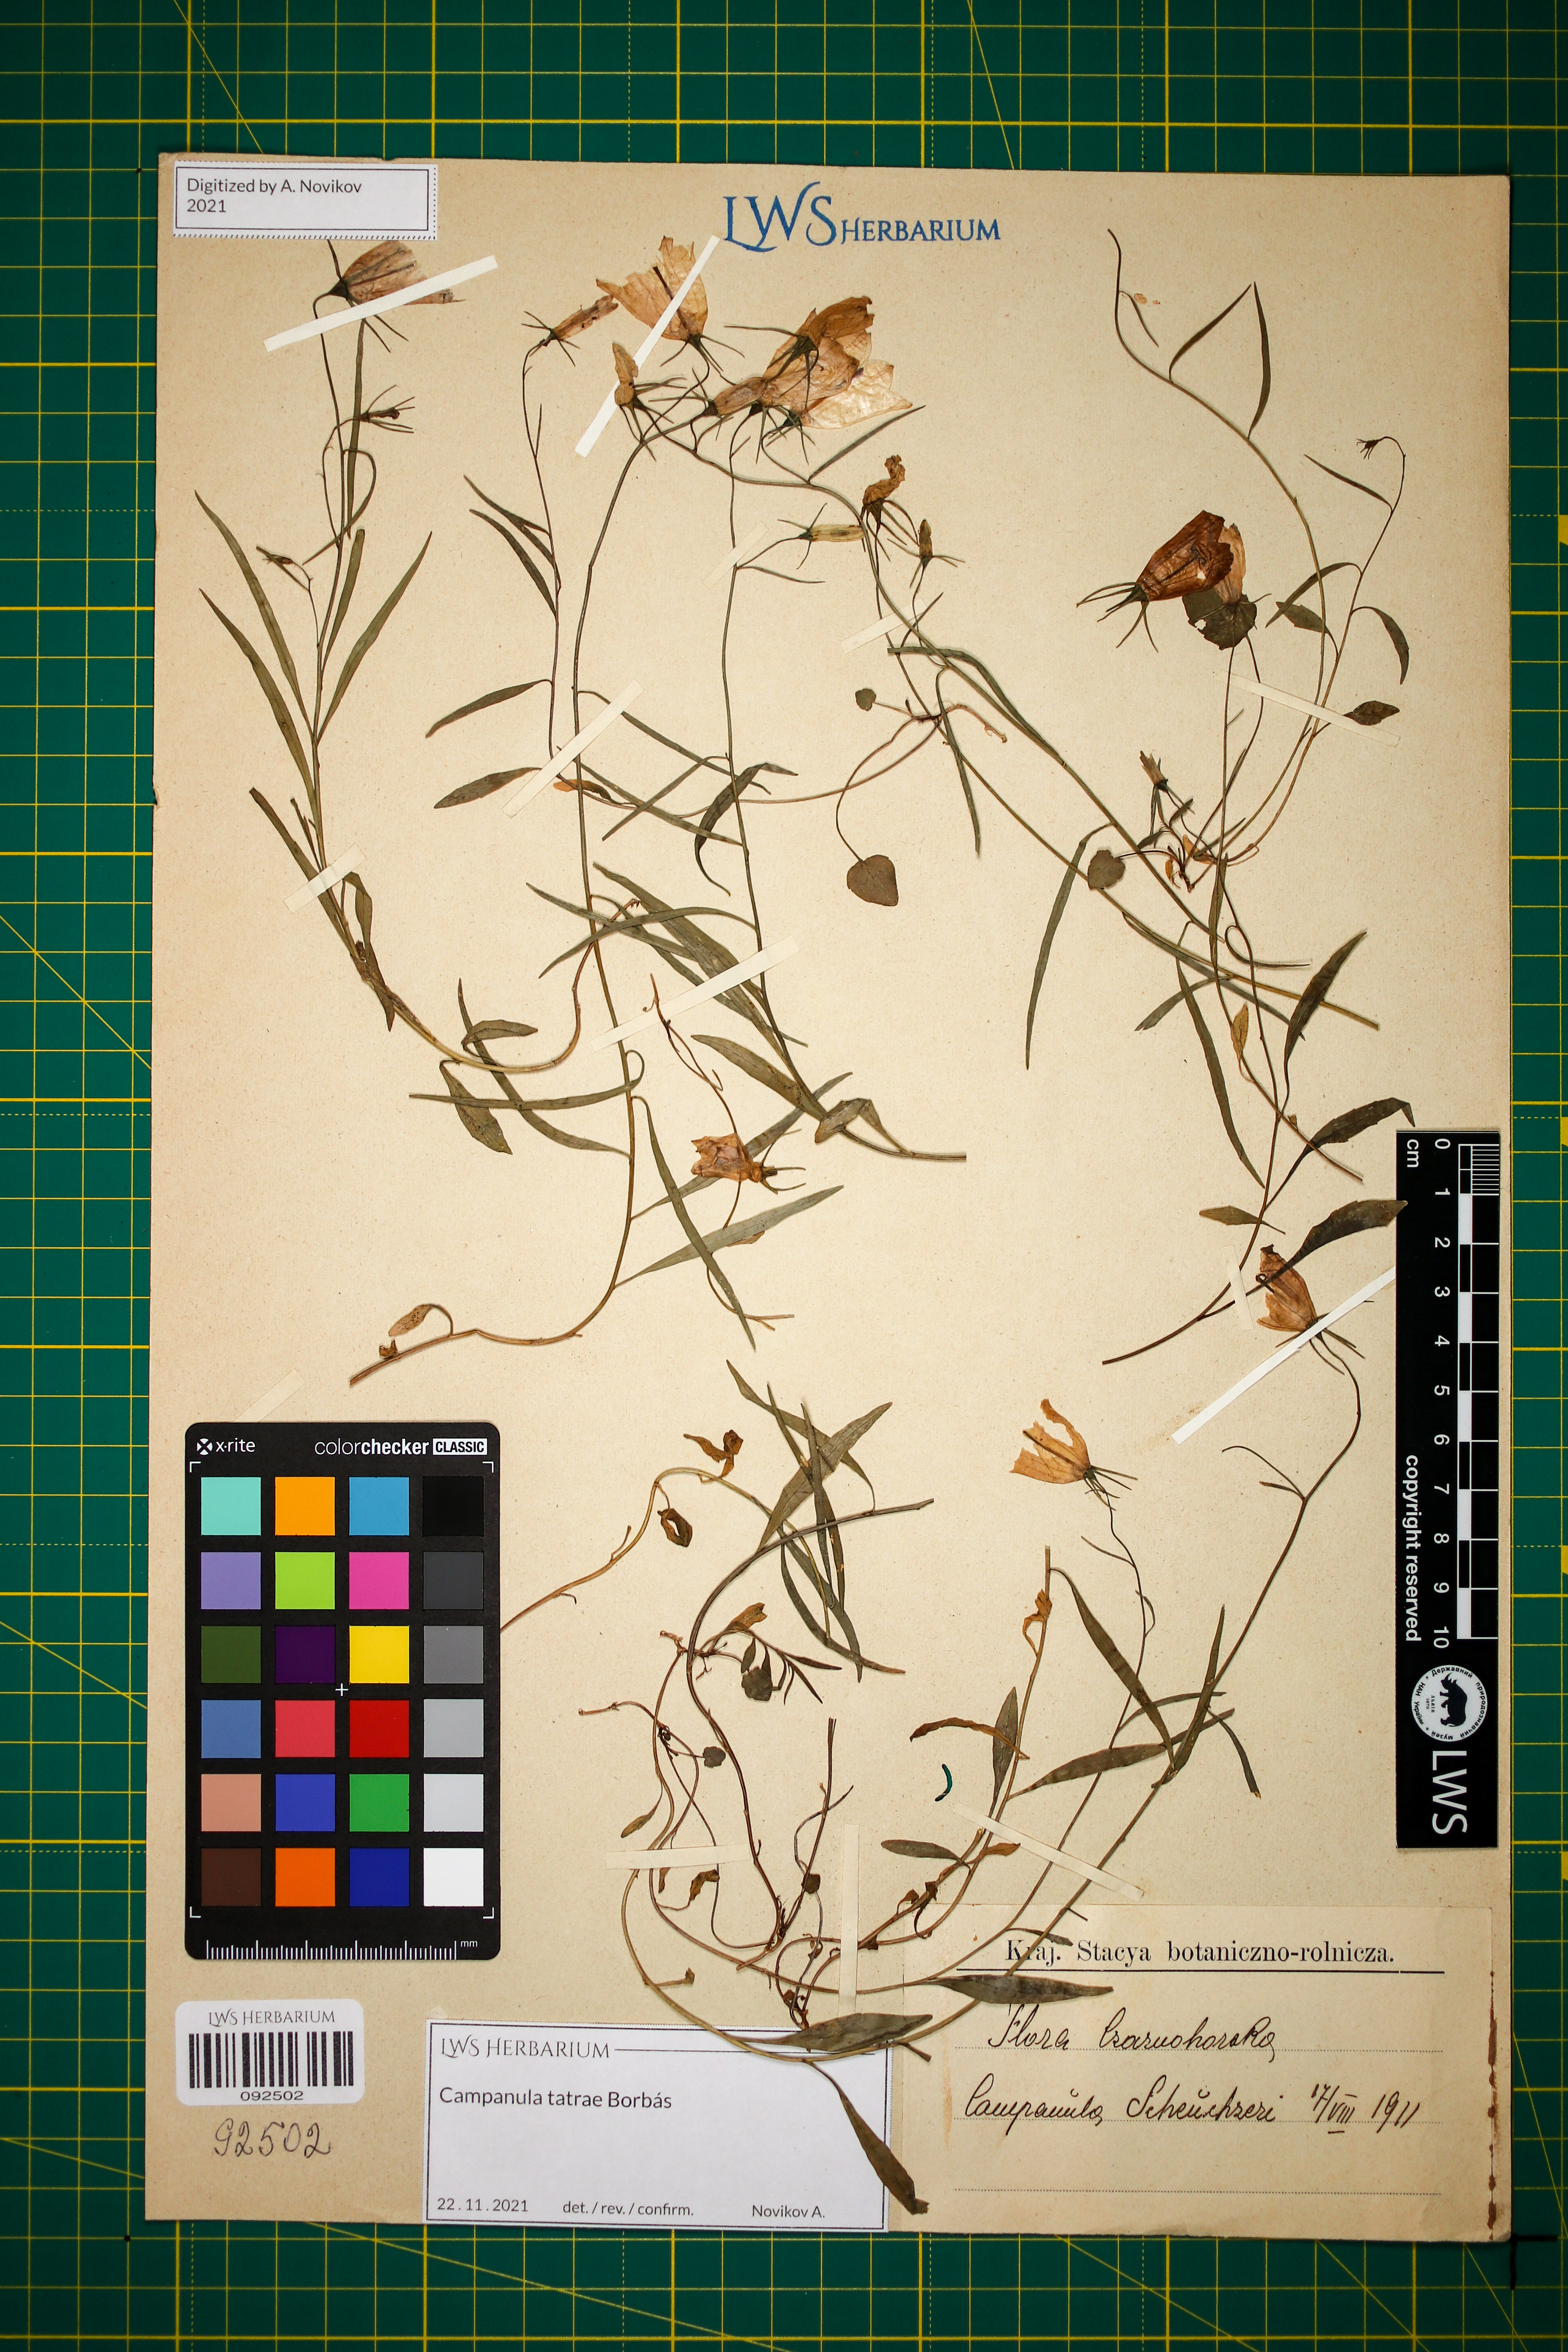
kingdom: Plantae
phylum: Tracheophyta
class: Magnoliopsida
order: Asterales
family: Campanulaceae
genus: Campanula
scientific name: Campanula tatrae
